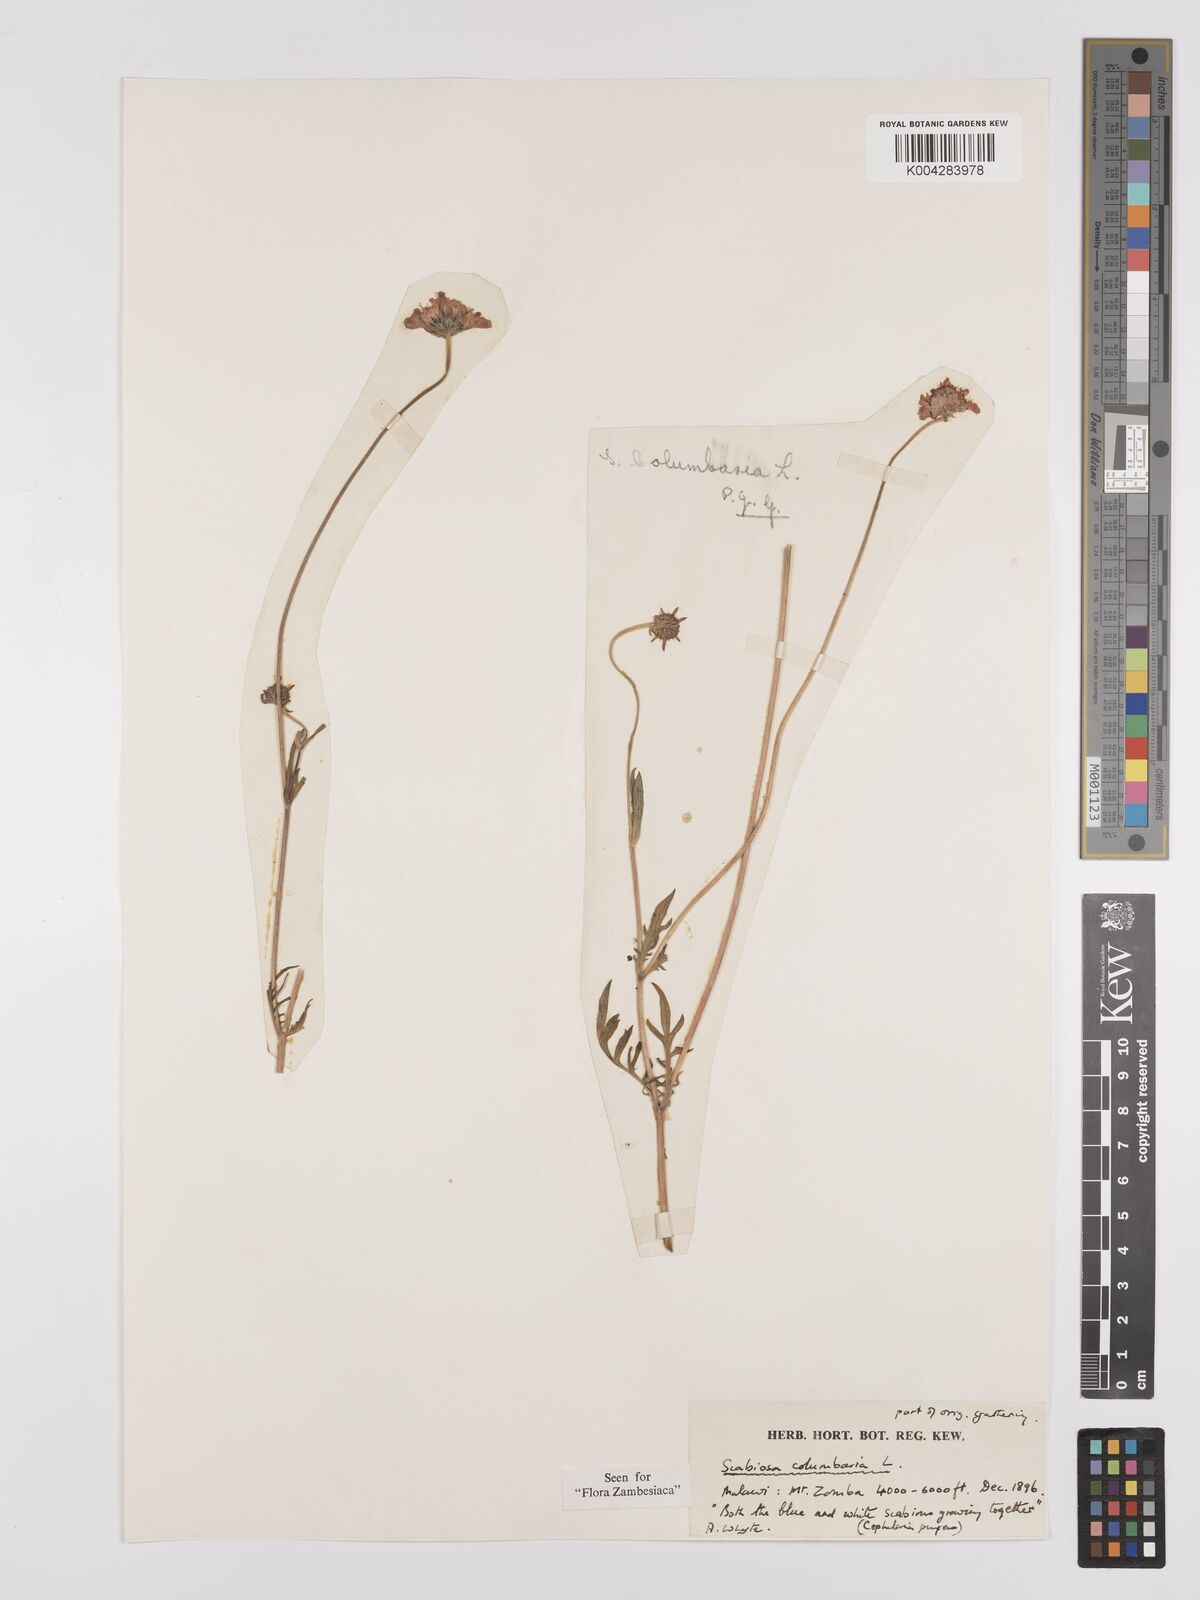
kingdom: Plantae
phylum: Tracheophyta
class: Magnoliopsida
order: Dipsacales
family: Caprifoliaceae
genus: Scabiosa
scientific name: Scabiosa columbaria
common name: Small scabious
